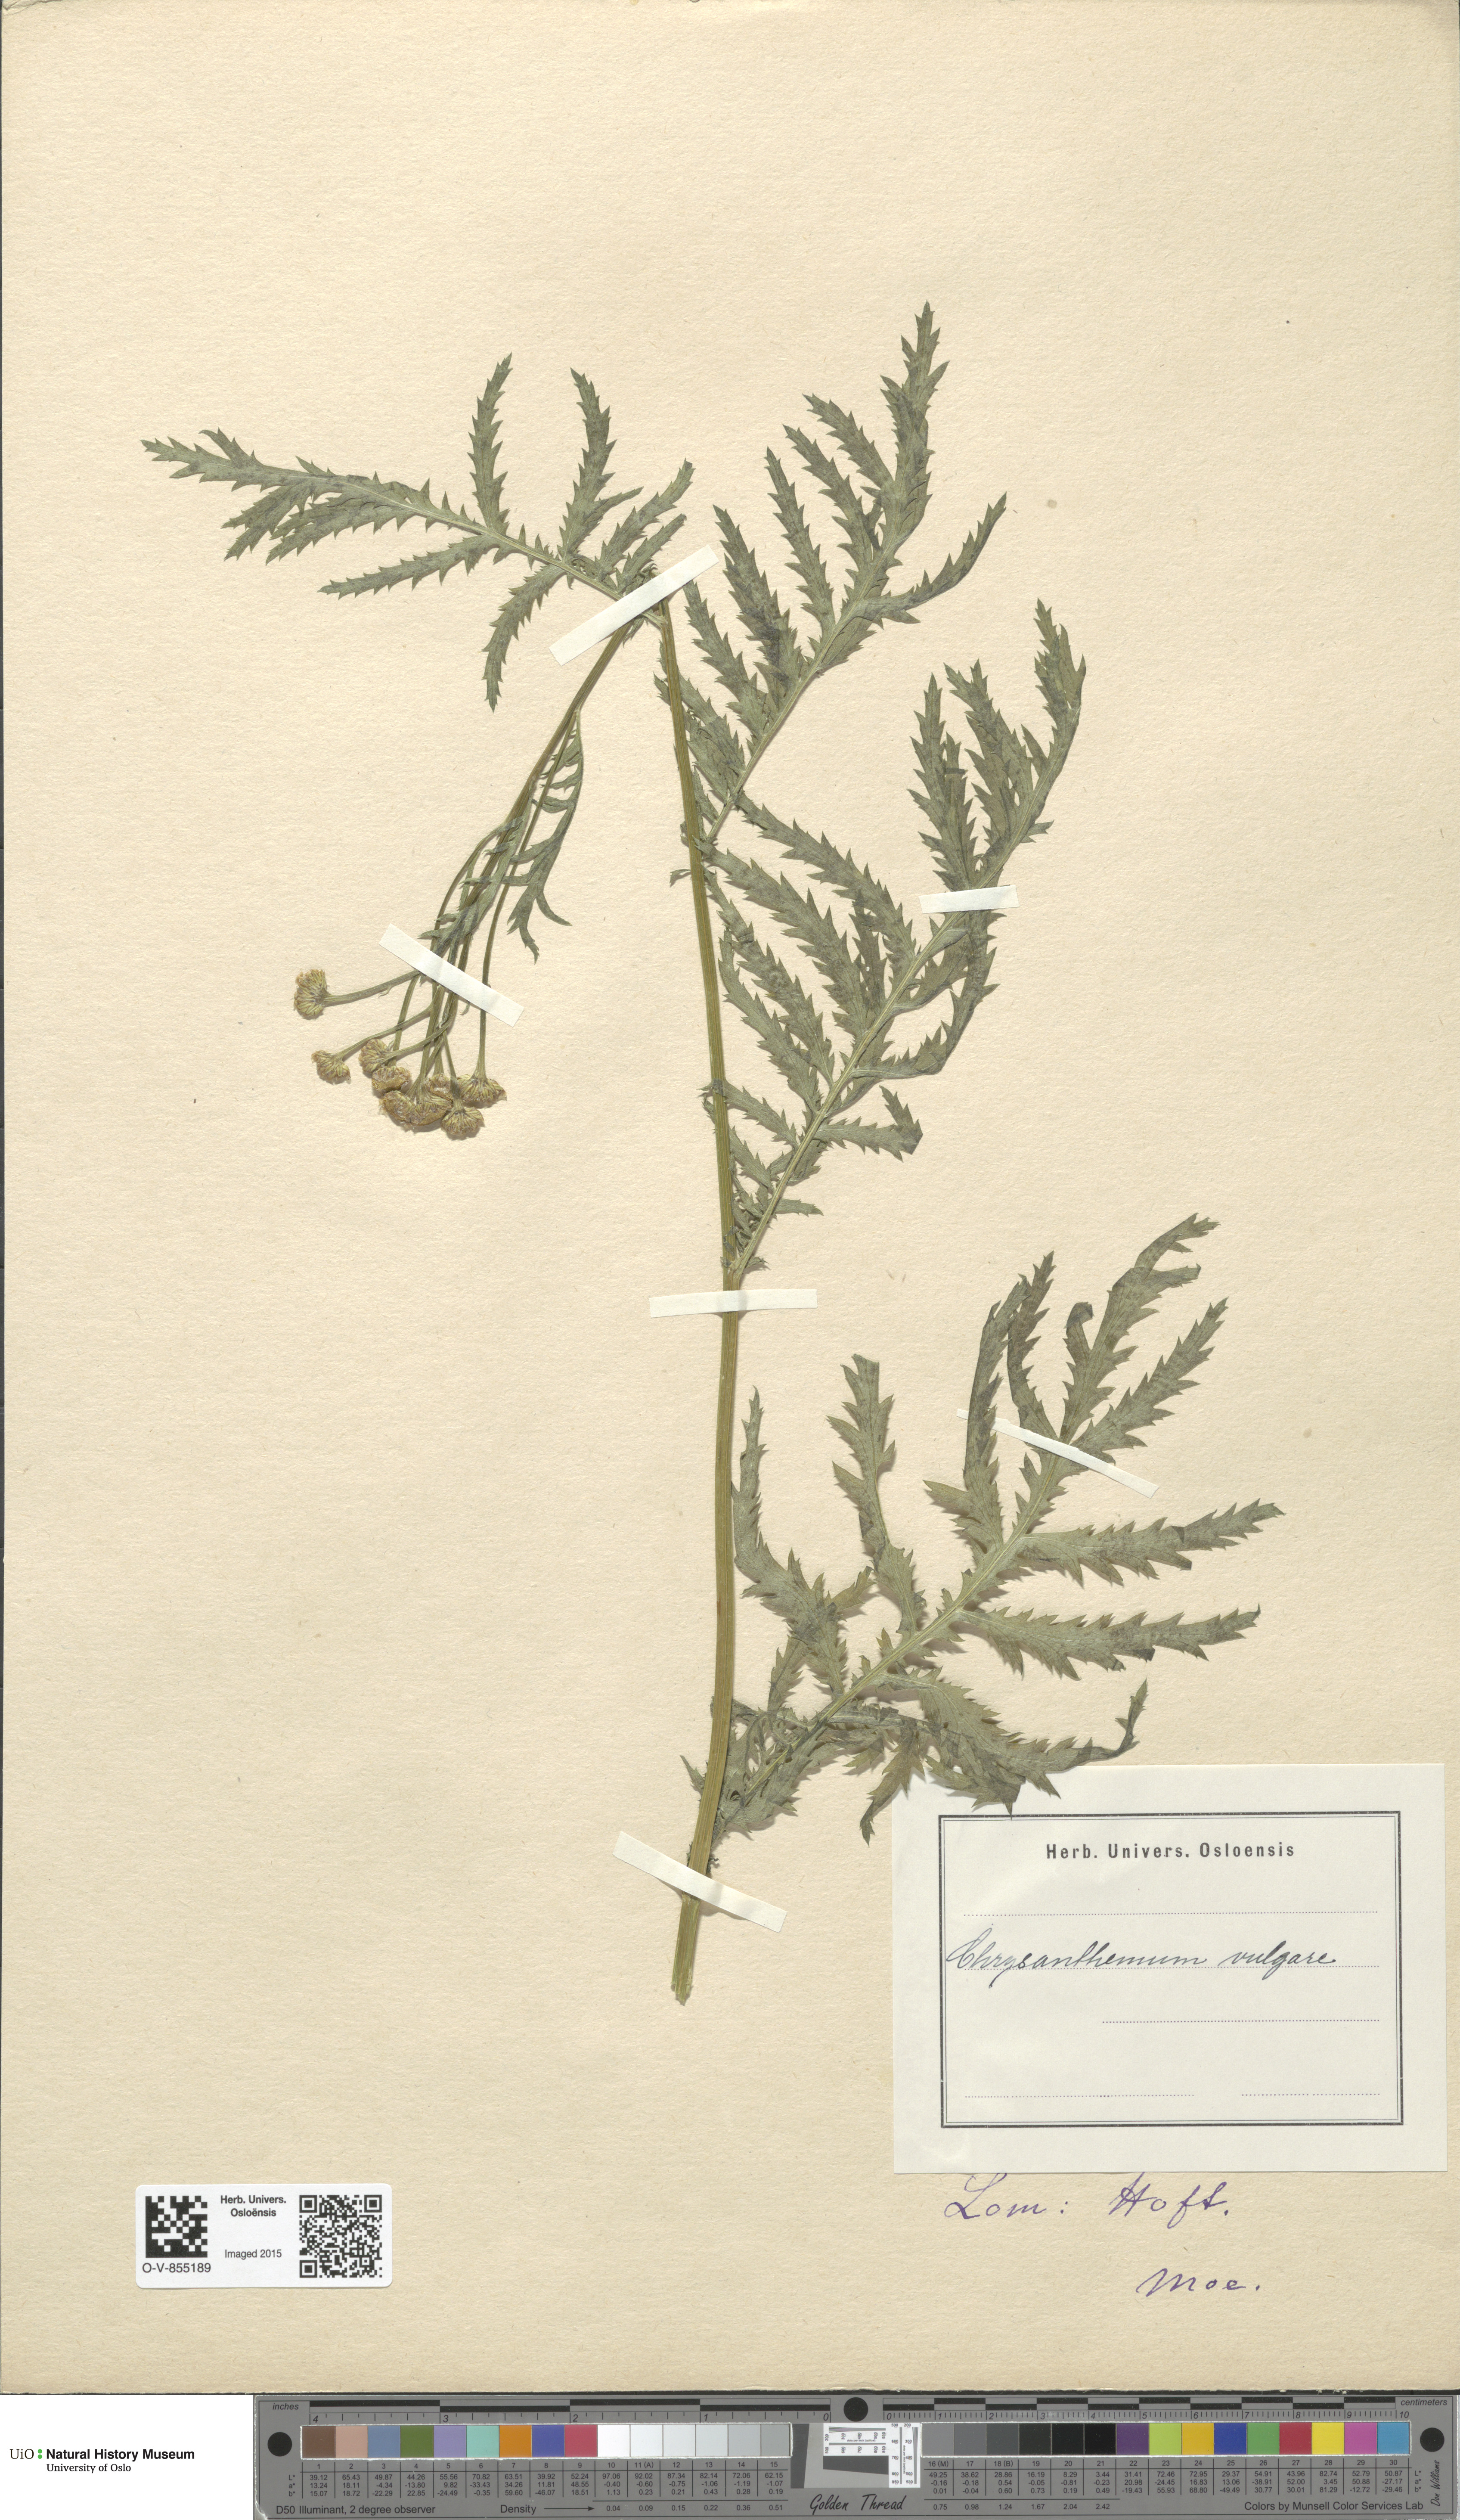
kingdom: Plantae
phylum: Tracheophyta
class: Magnoliopsida
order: Asterales
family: Asteraceae
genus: Tanacetum
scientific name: Tanacetum vulgare
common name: Common tansy
